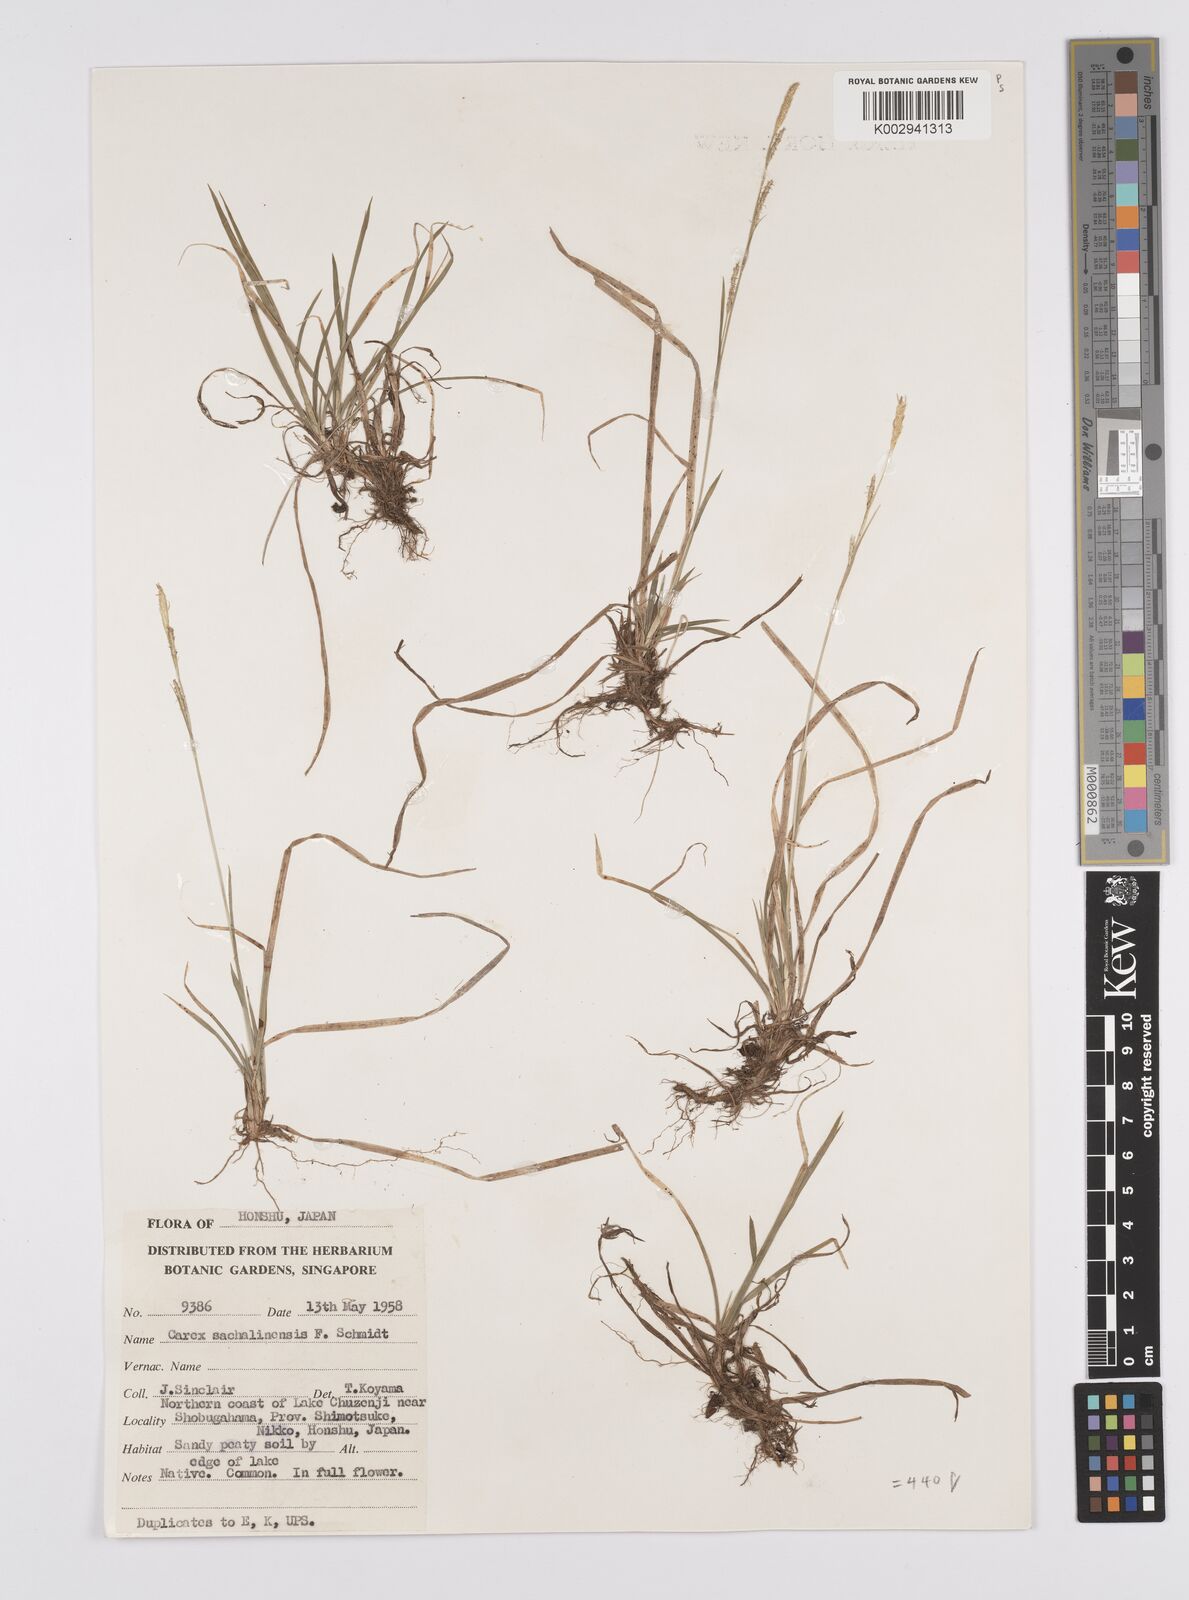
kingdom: Plantae
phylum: Tracheophyta
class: Liliopsida
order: Poales
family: Cyperaceae
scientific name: Cyperaceae
